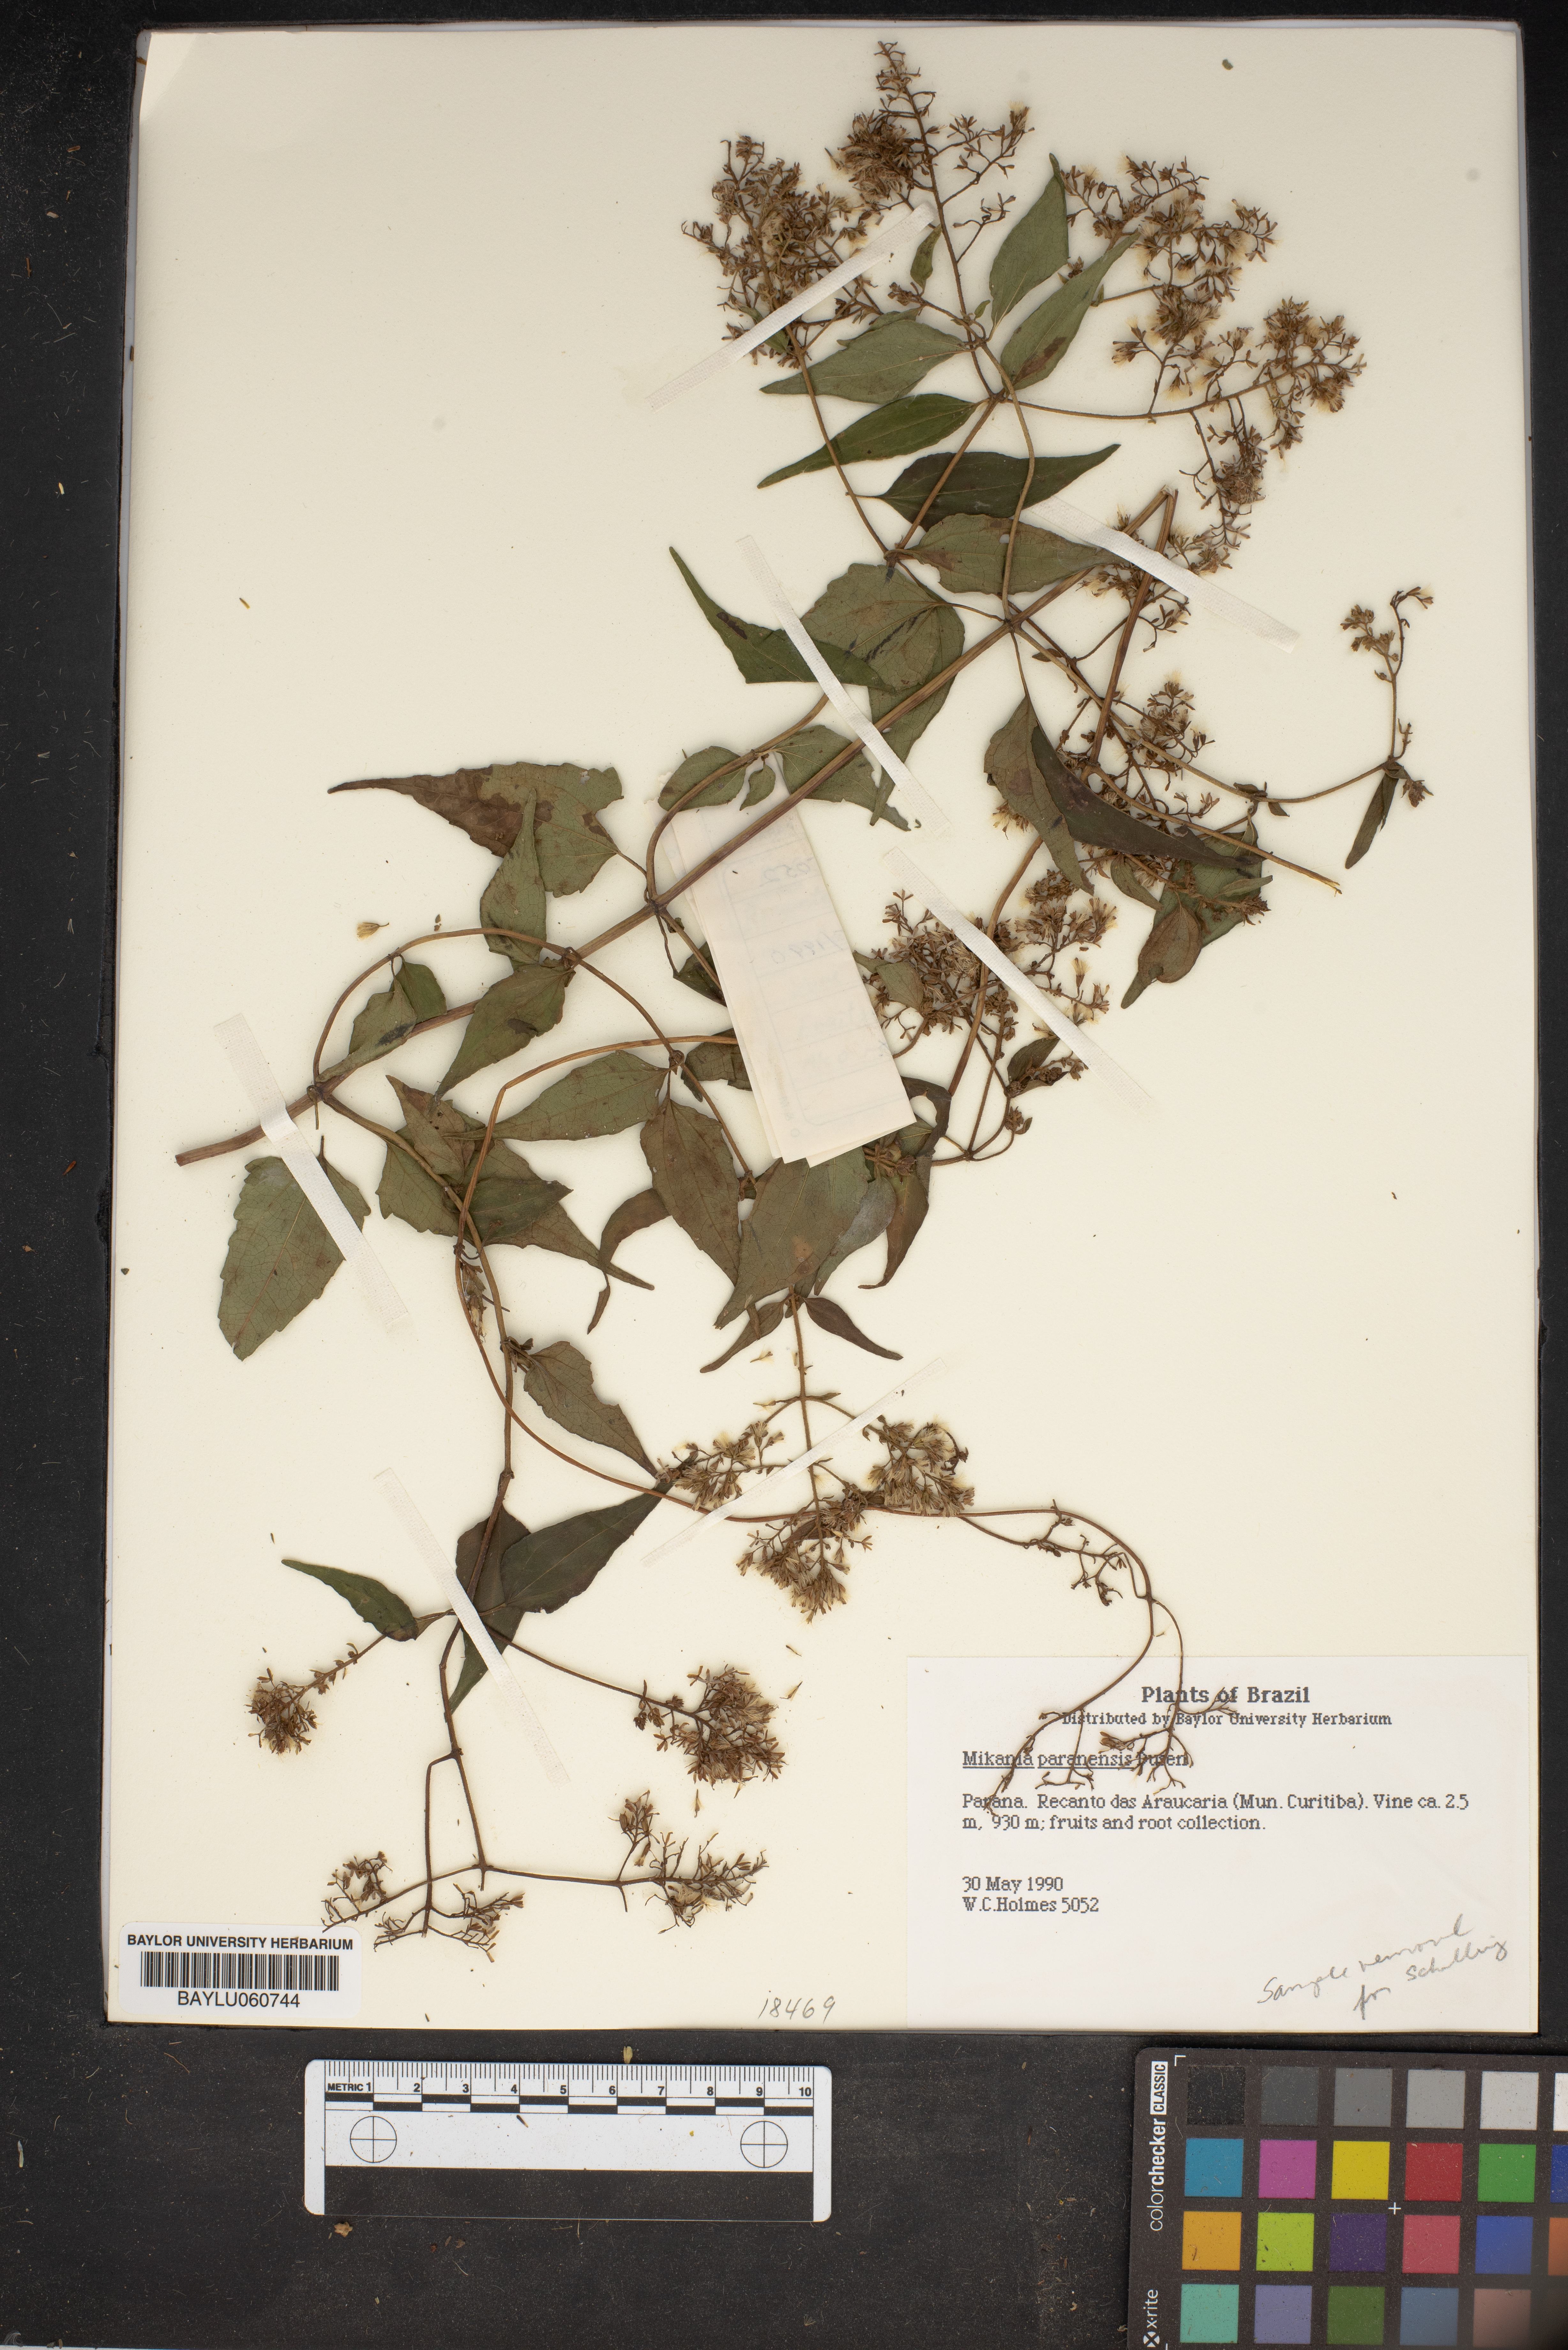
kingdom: Plantae
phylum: Tracheophyta
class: Magnoliopsida
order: Asterales
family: Asteraceae
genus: Mikania
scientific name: Mikania paranensis
